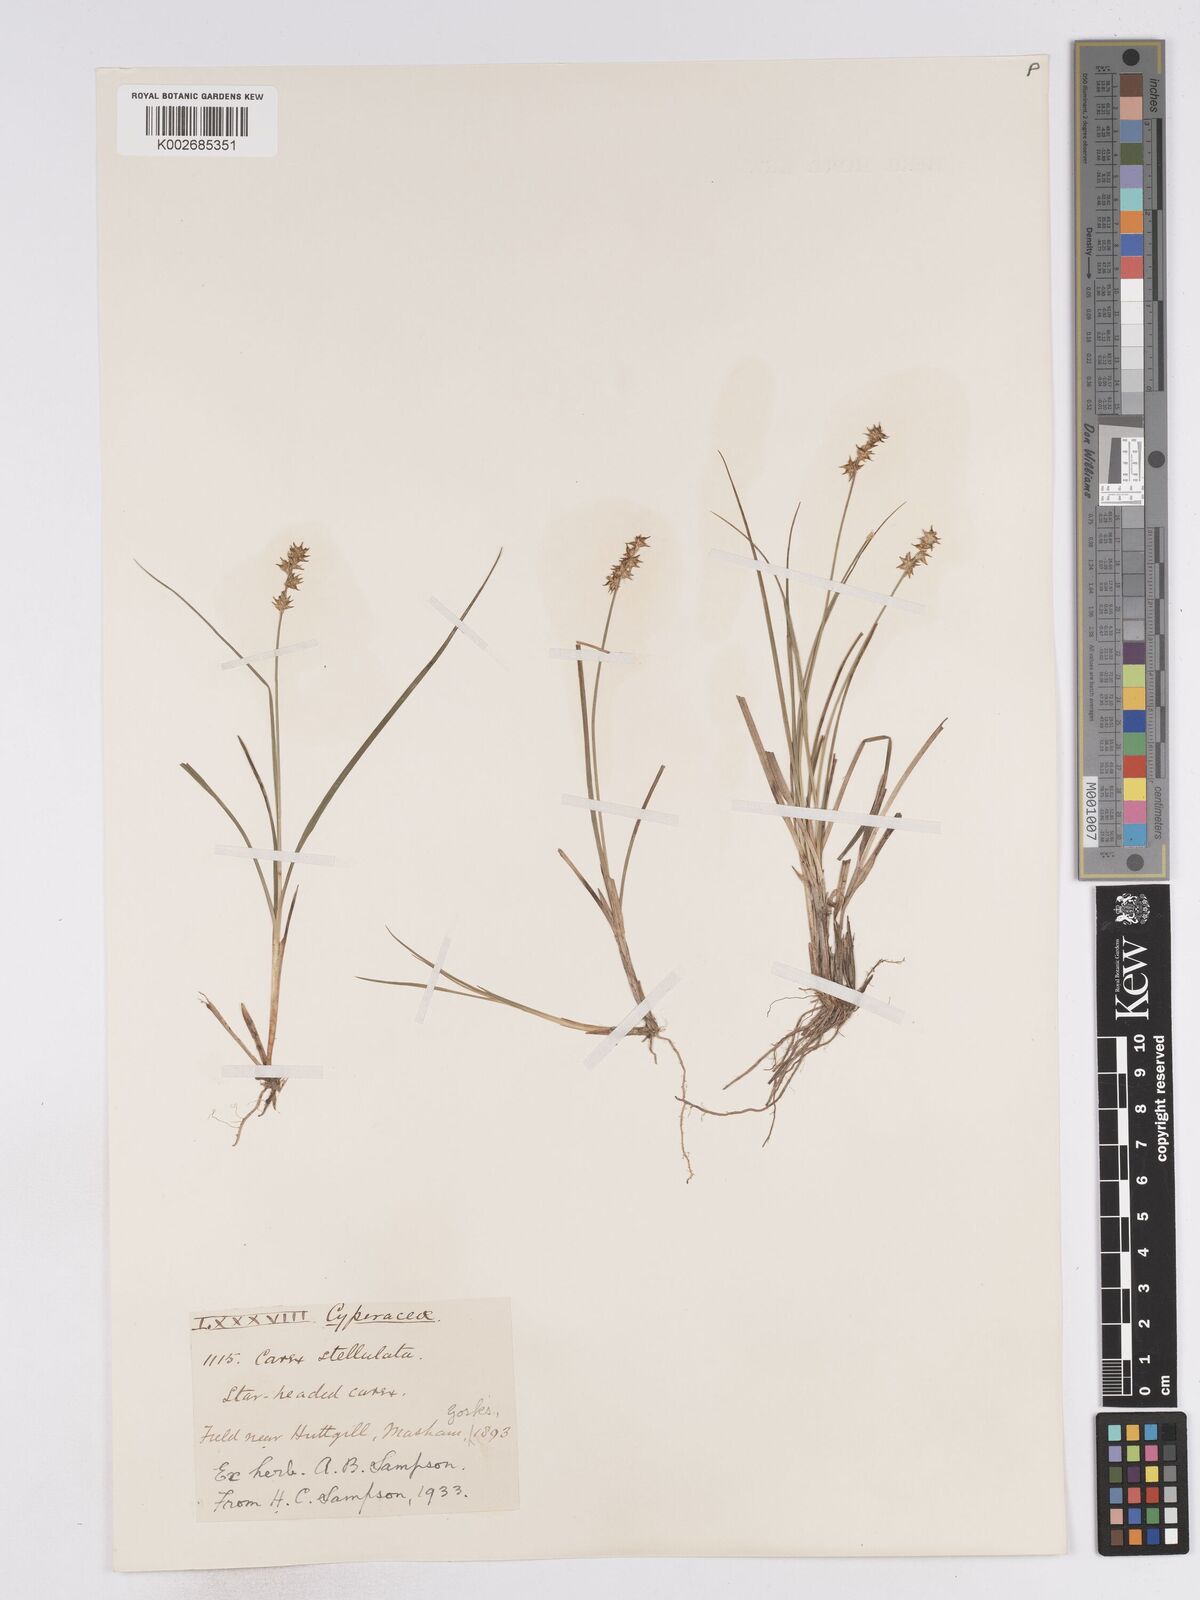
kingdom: Plantae
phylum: Tracheophyta
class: Liliopsida
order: Poales
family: Cyperaceae
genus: Carex
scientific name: Carex echinata
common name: Star sedge
